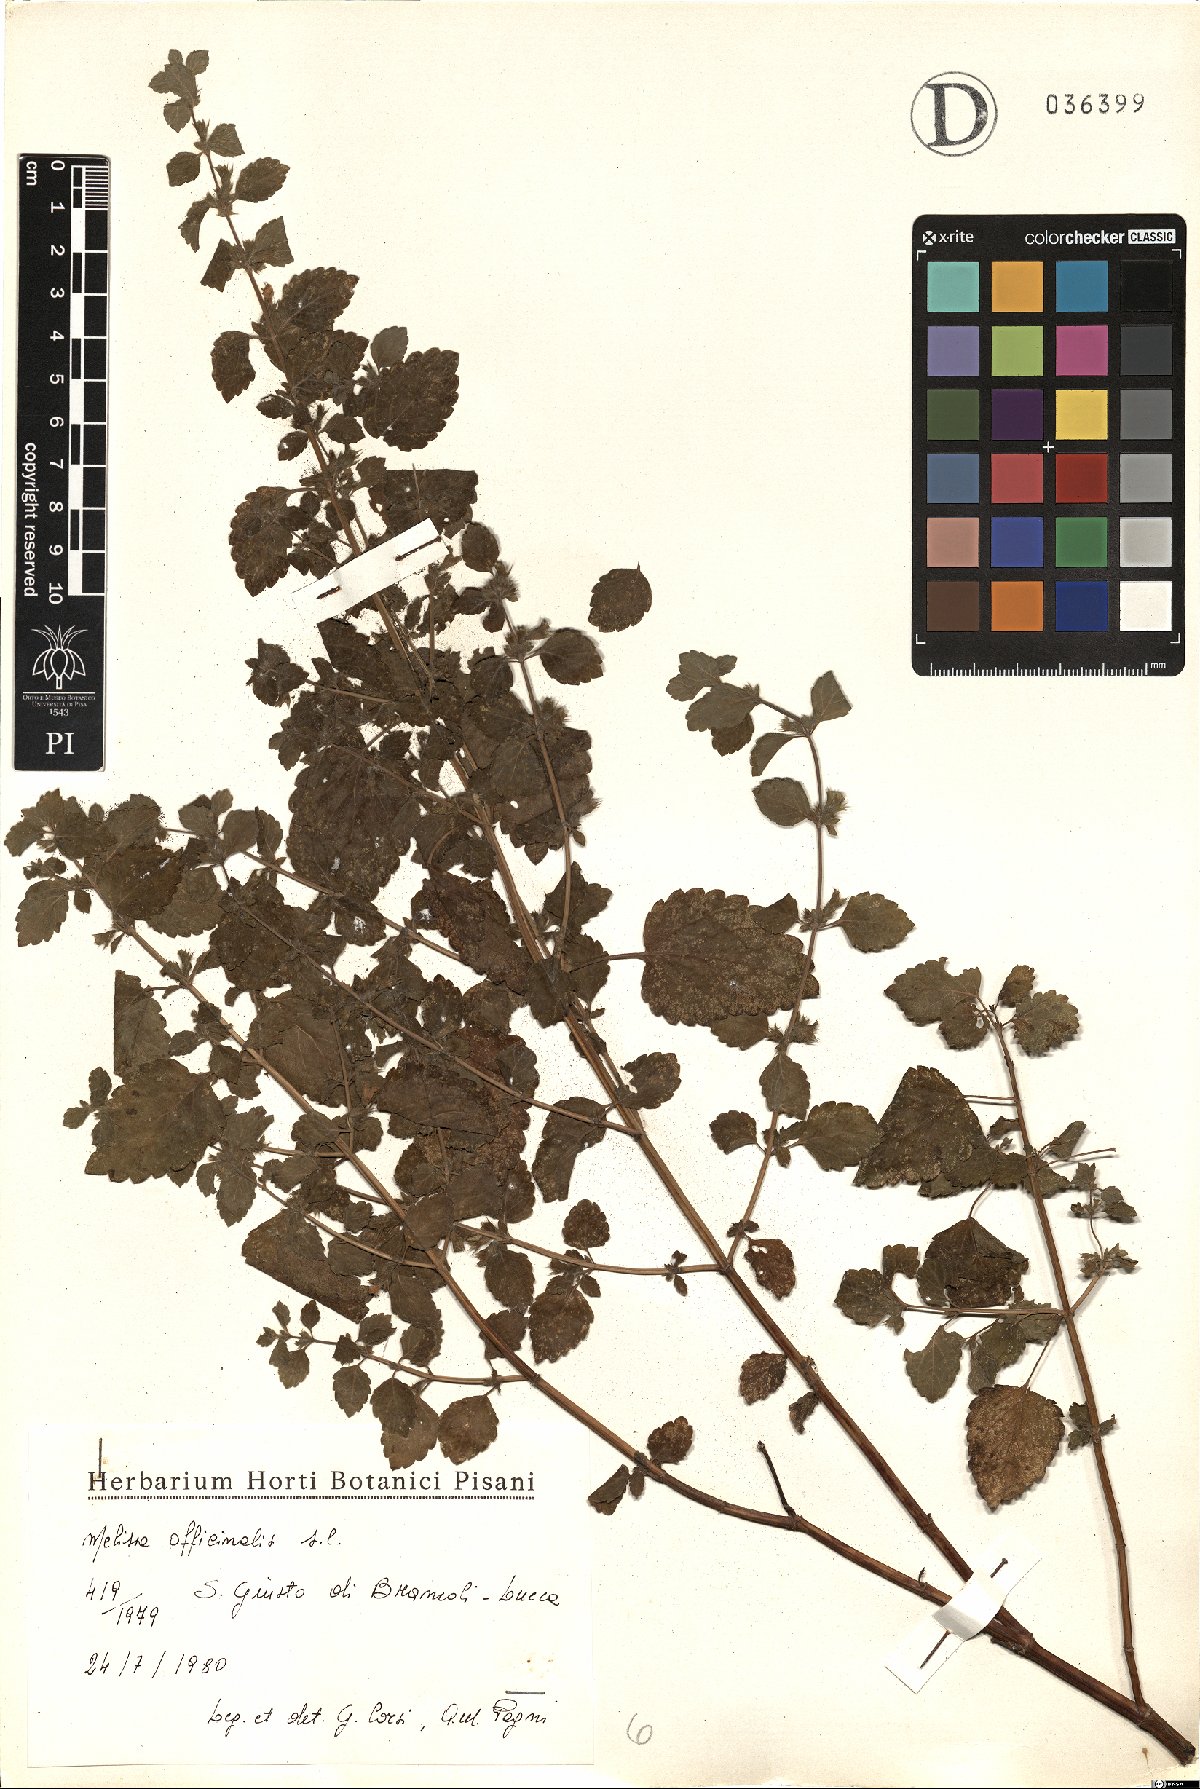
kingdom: Plantae
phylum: Tracheophyta
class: Magnoliopsida
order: Lamiales
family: Lamiaceae
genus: Melissa
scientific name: Melissa officinalis
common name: Balm
